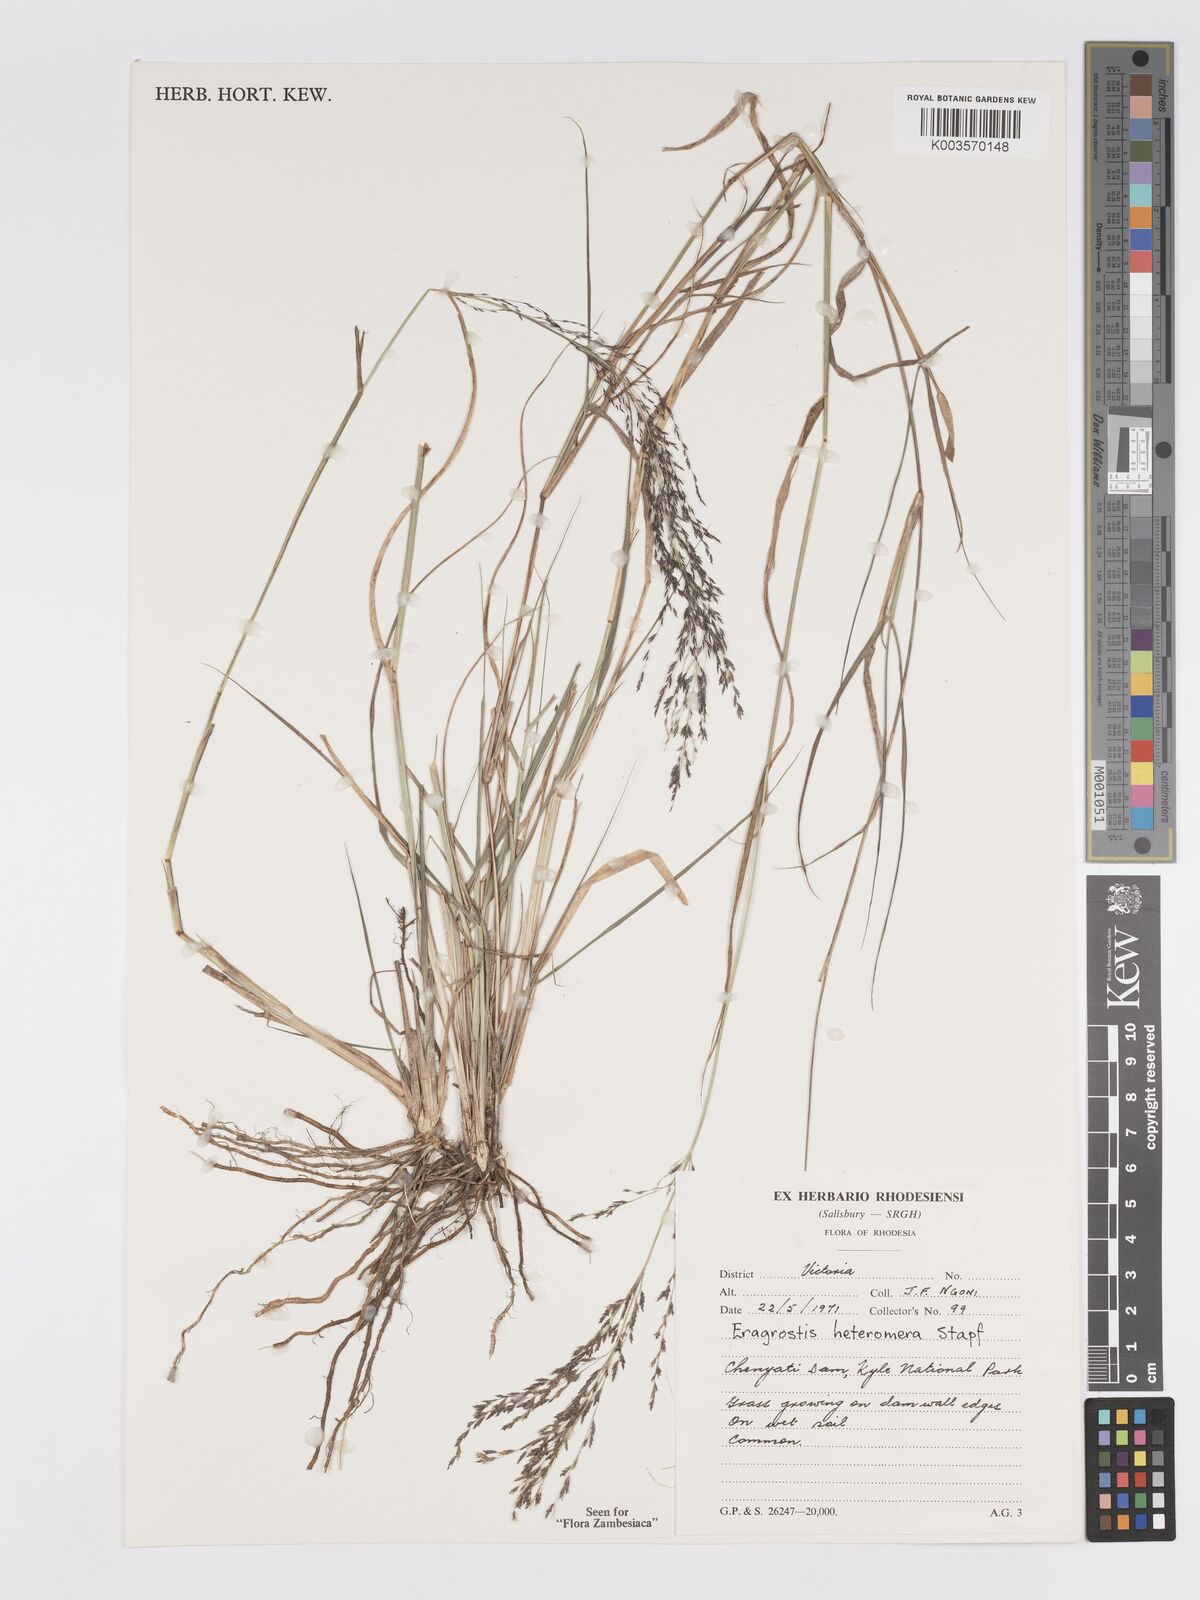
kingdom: Plantae
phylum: Tracheophyta
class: Liliopsida
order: Poales
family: Poaceae
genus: Eragrostis
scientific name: Eragrostis heteromera
